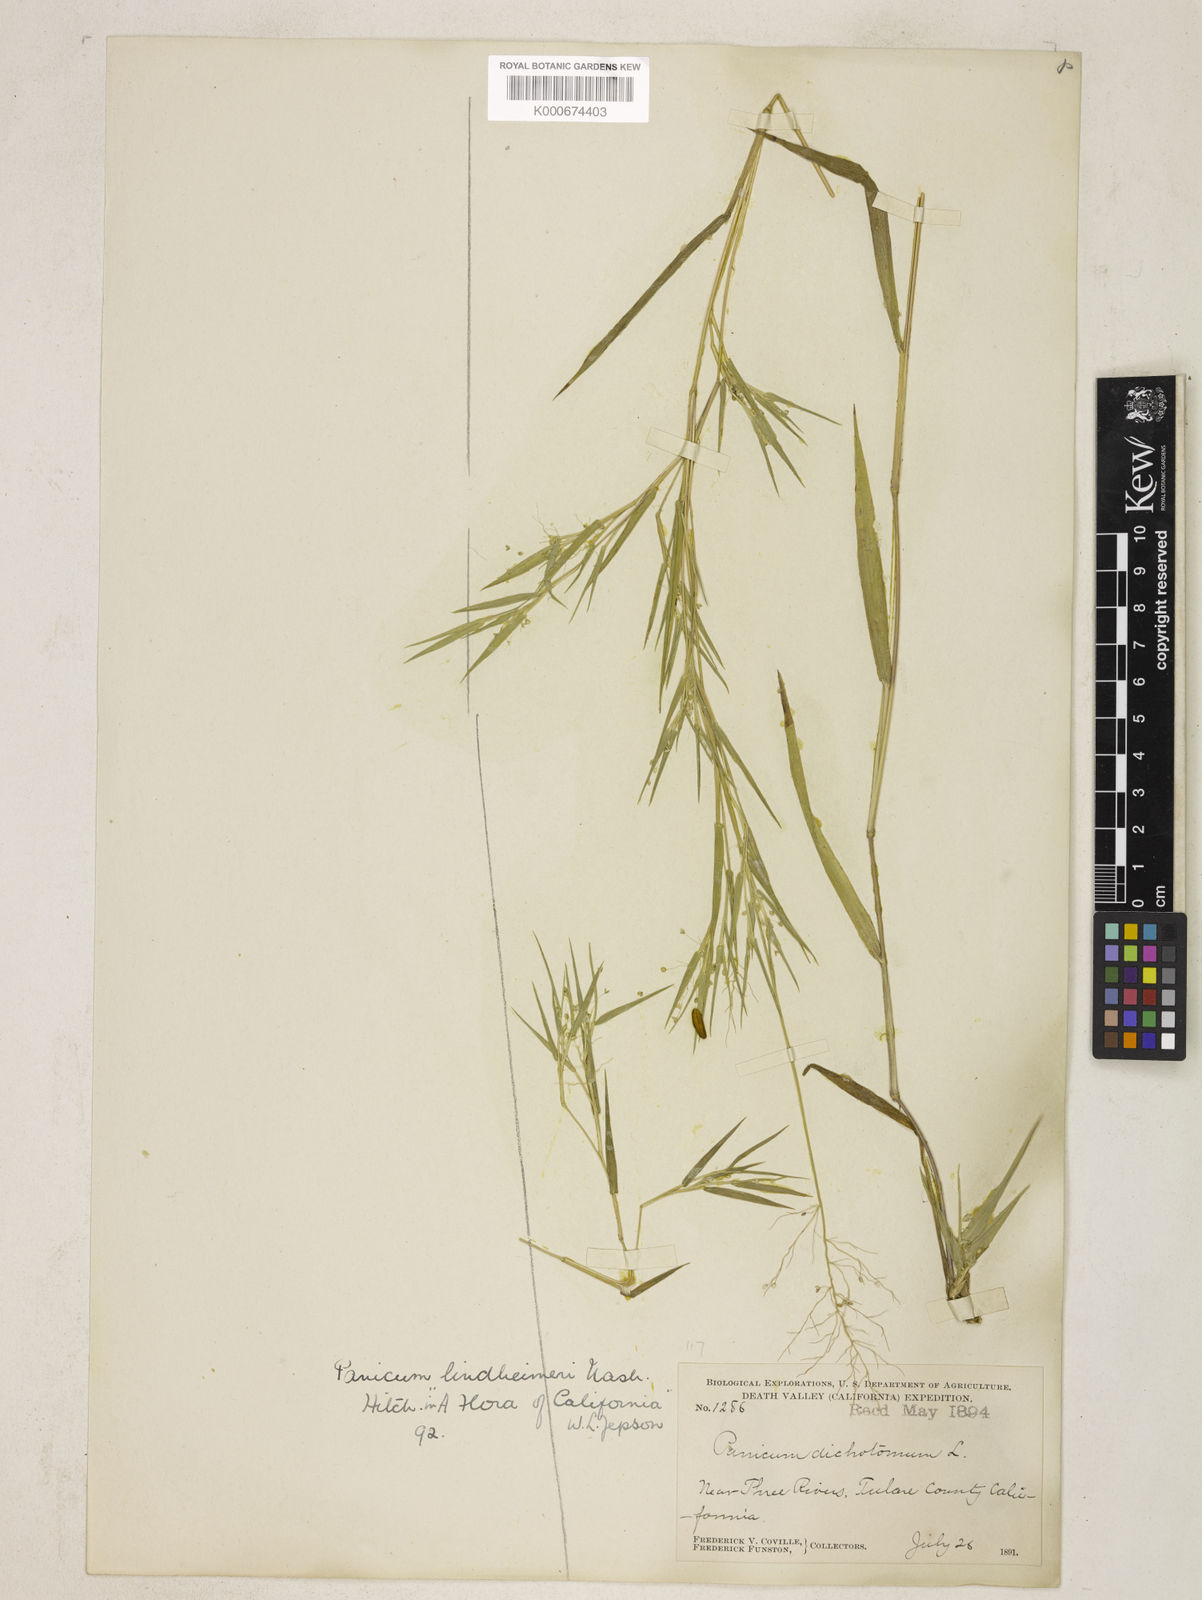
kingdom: Plantae
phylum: Tracheophyta
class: Liliopsida
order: Poales
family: Poaceae
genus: Dichanthelium
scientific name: Dichanthelium lindheimeri
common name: Lindheimer's panicgrass
